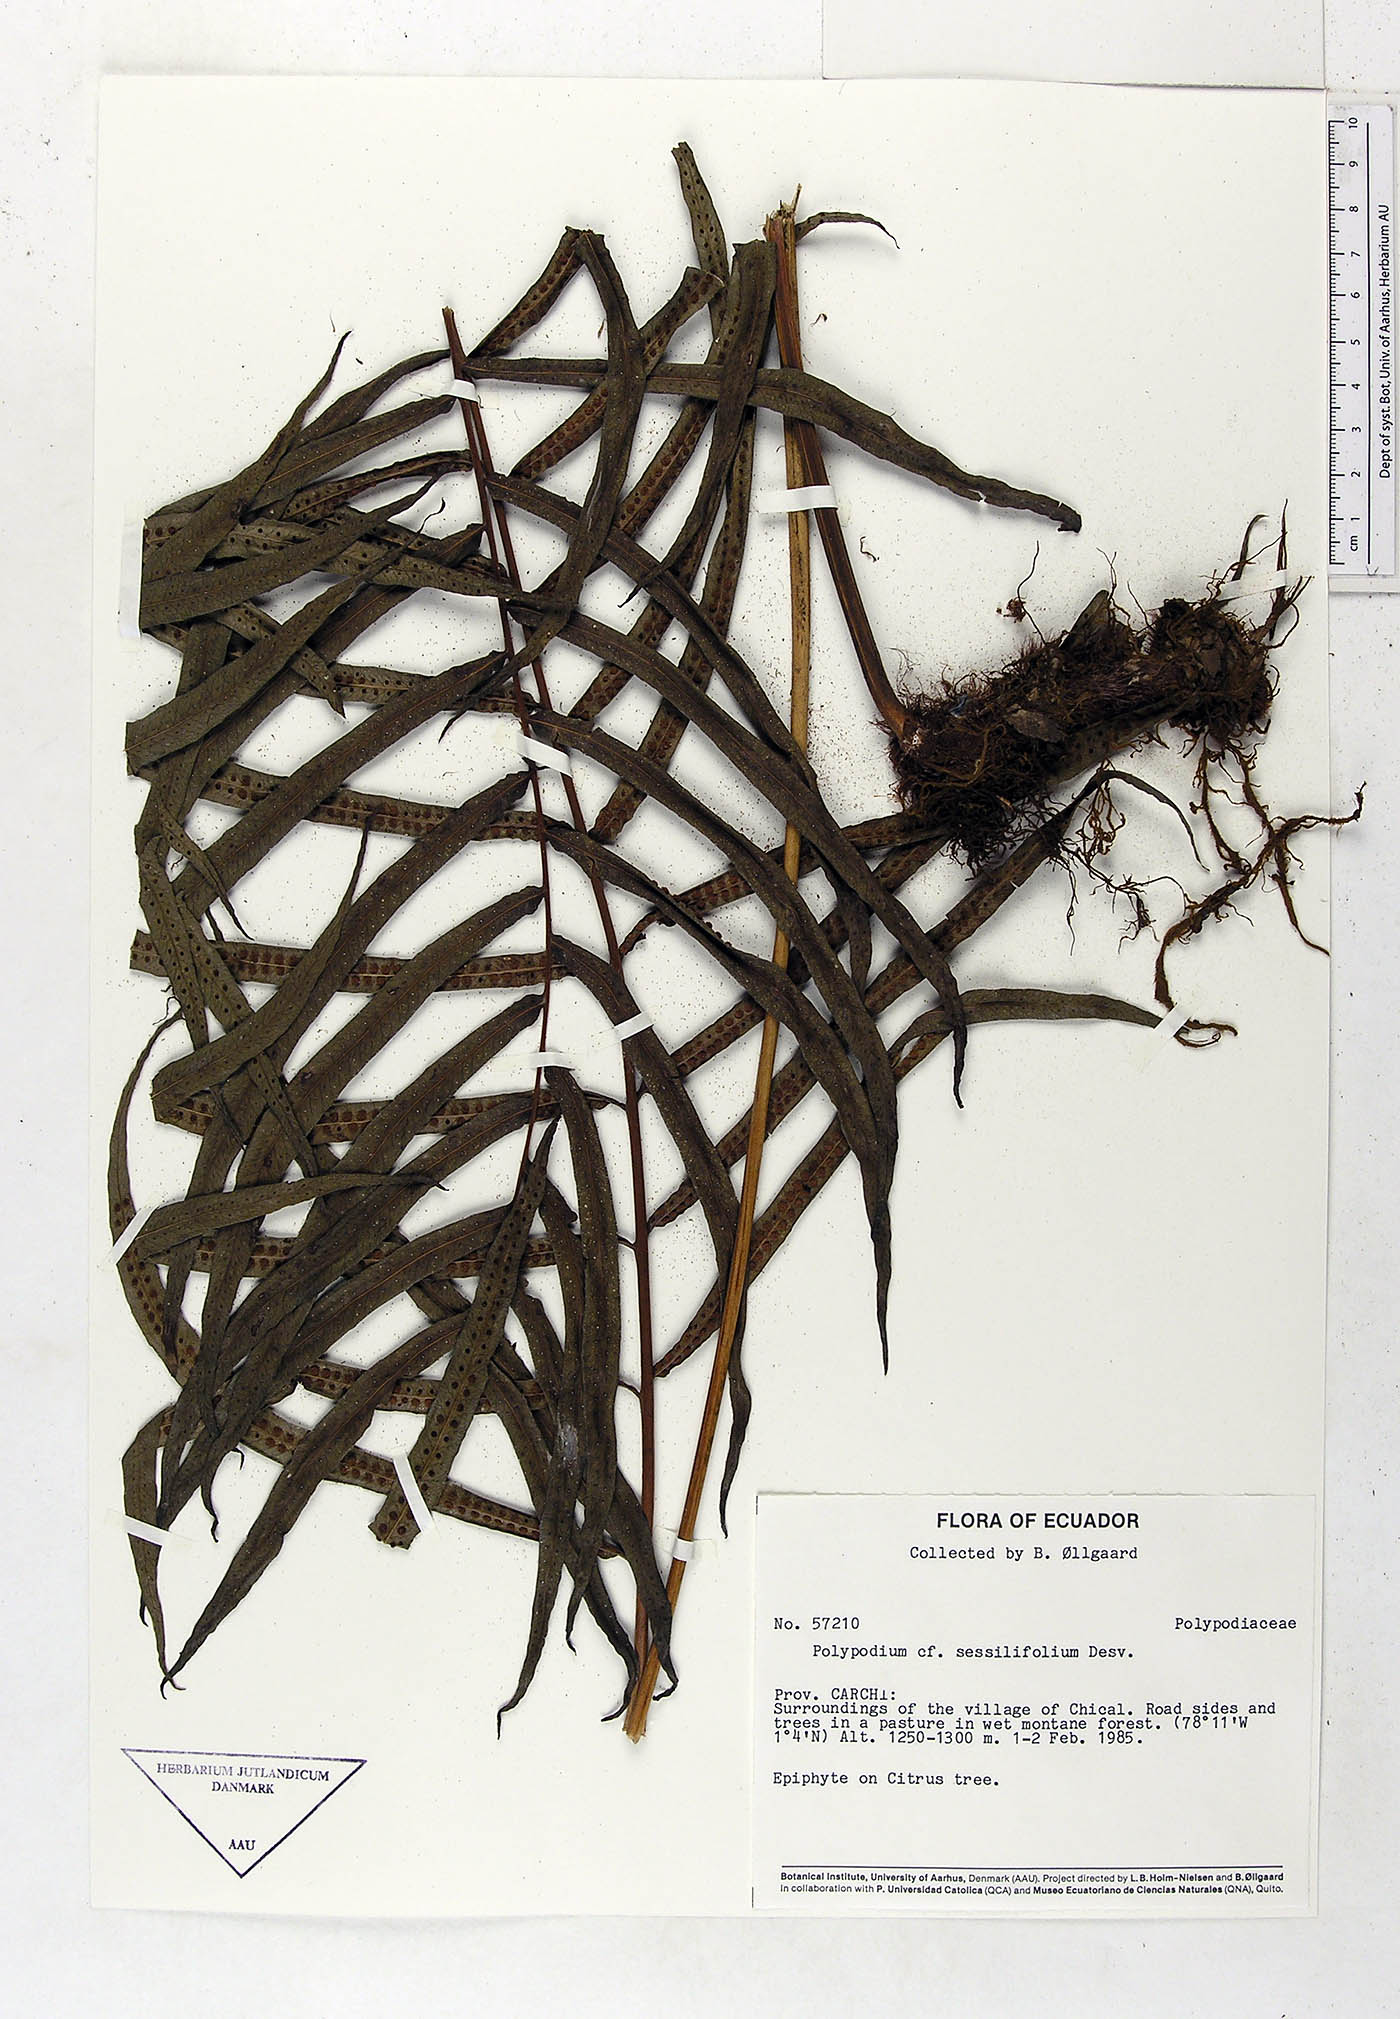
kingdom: Plantae
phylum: Tracheophyta
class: Polypodiopsida
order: Polypodiales
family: Polypodiaceae
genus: Serpocaulon
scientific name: Serpocaulon sessilifolium
